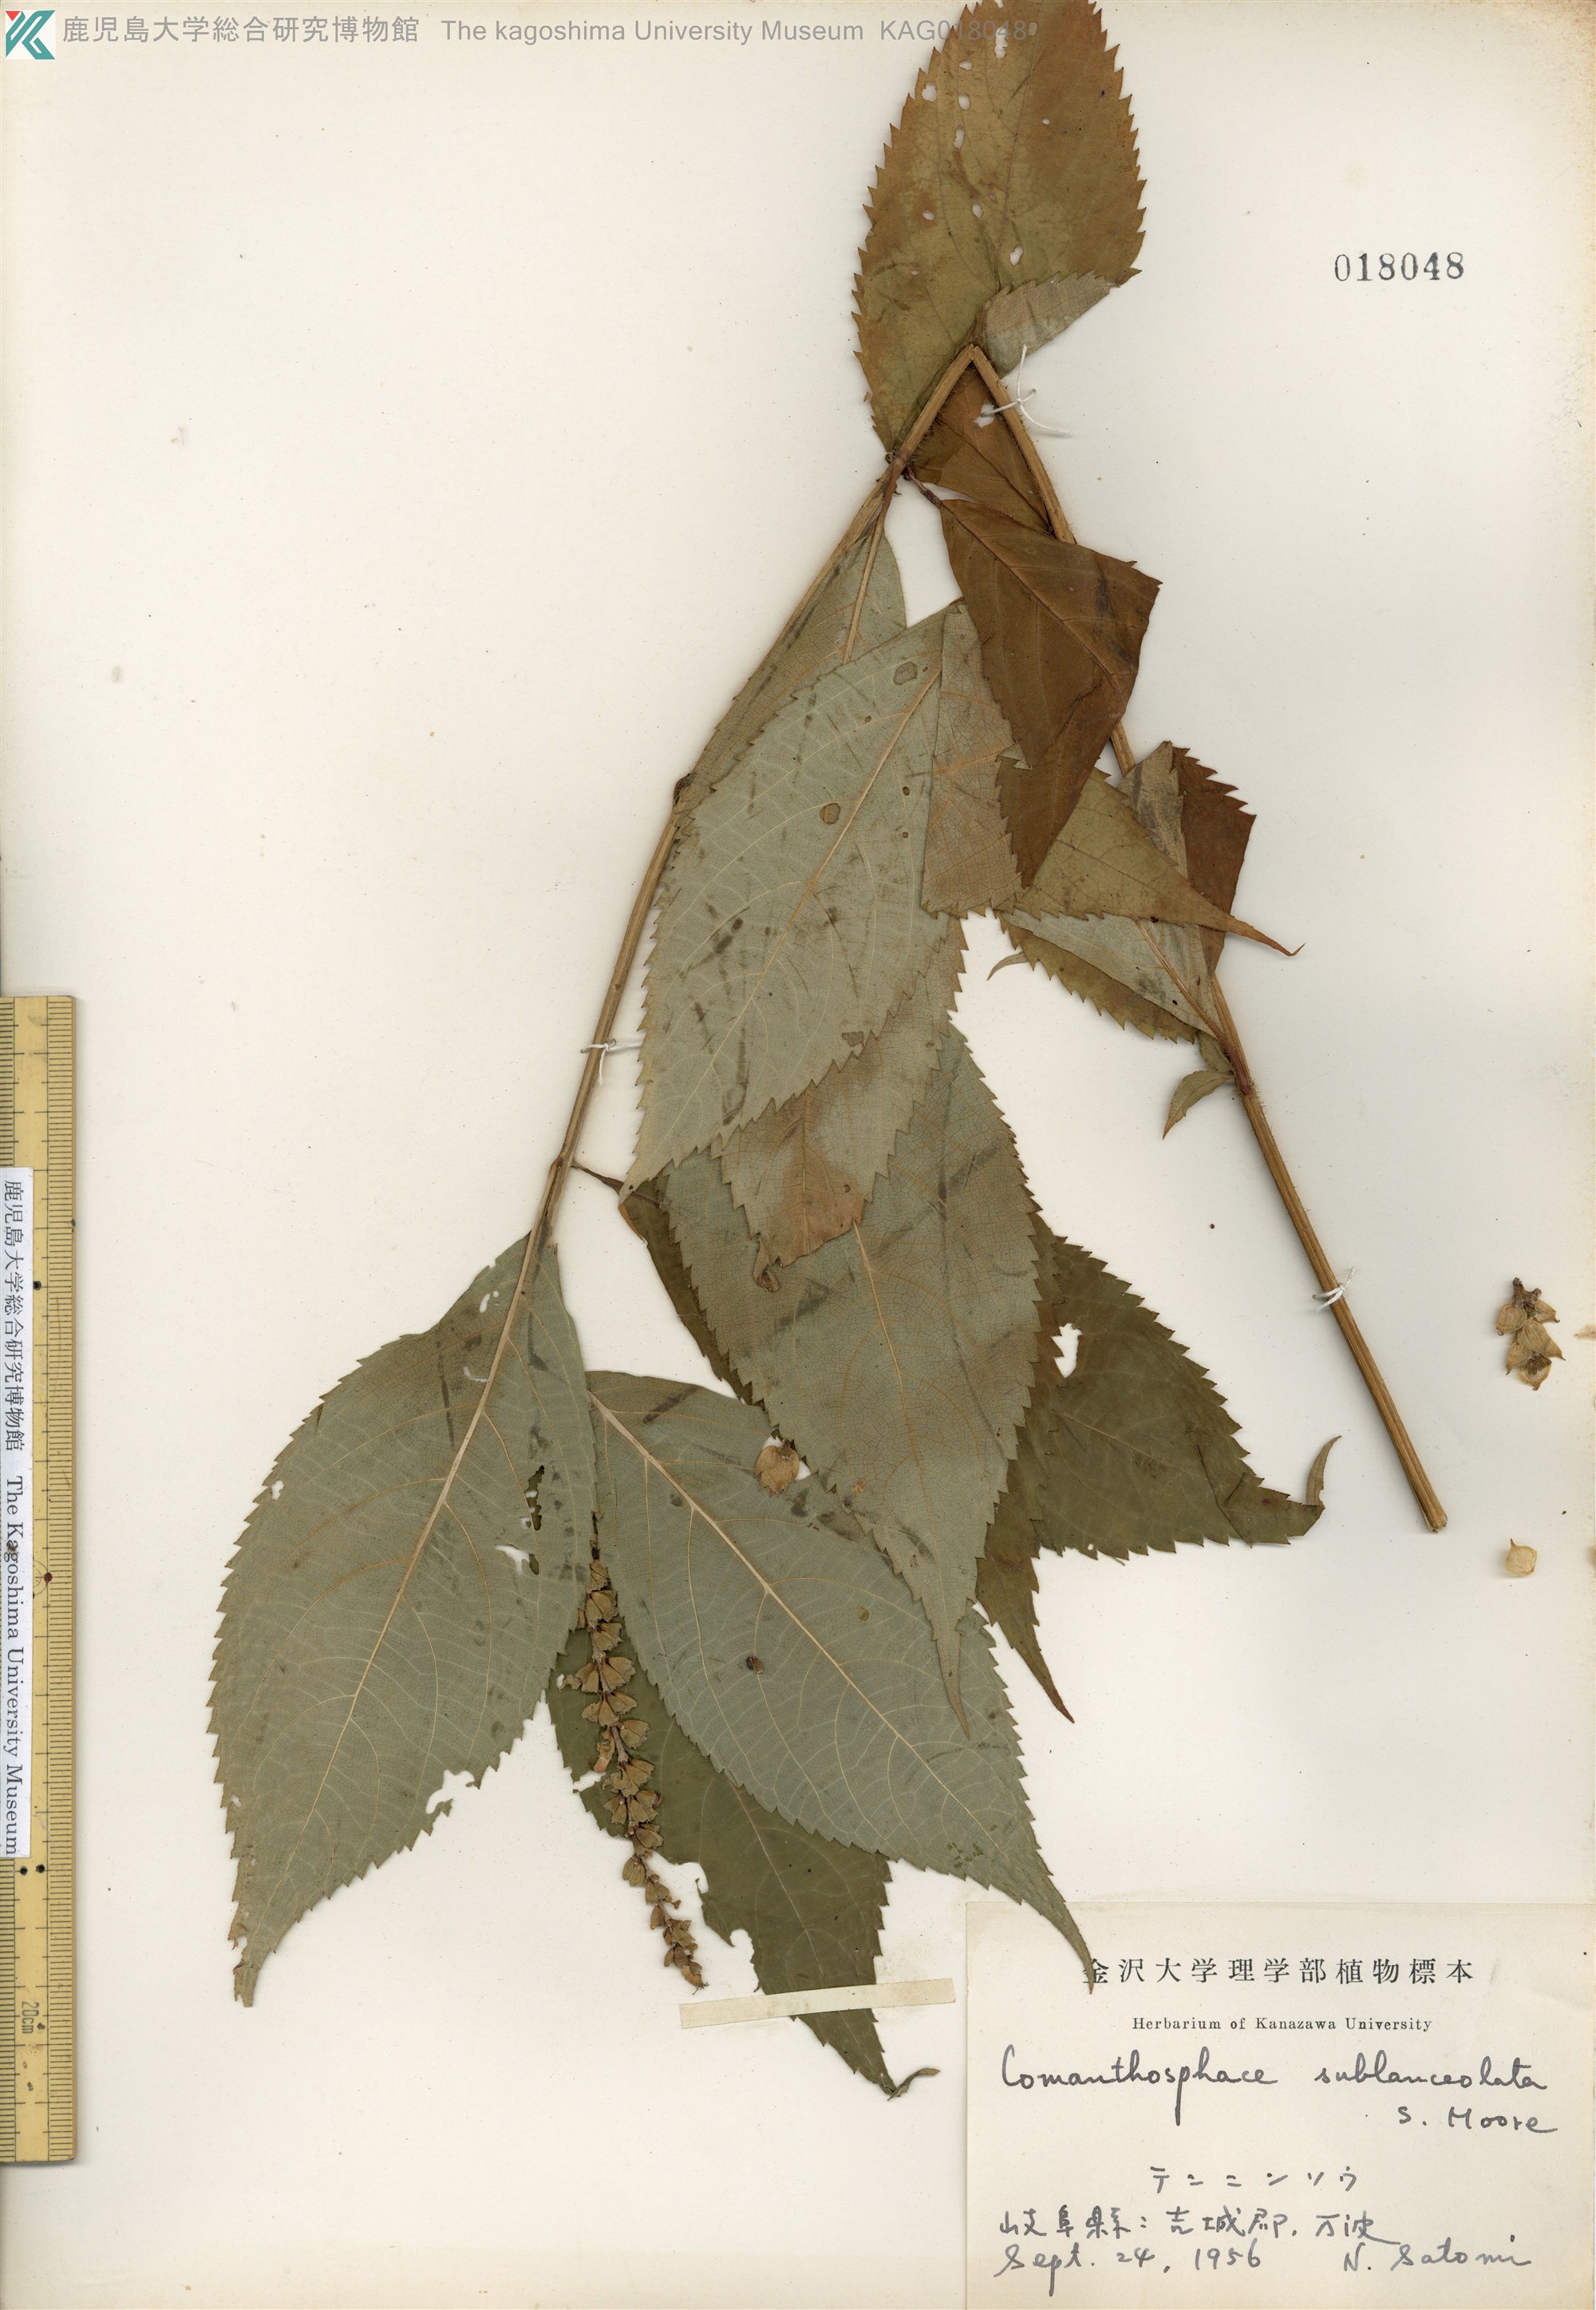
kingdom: Plantae
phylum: Tracheophyta
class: Magnoliopsida
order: Lamiales
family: Lamiaceae
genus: Comanthosphace
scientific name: Comanthosphace japonica
